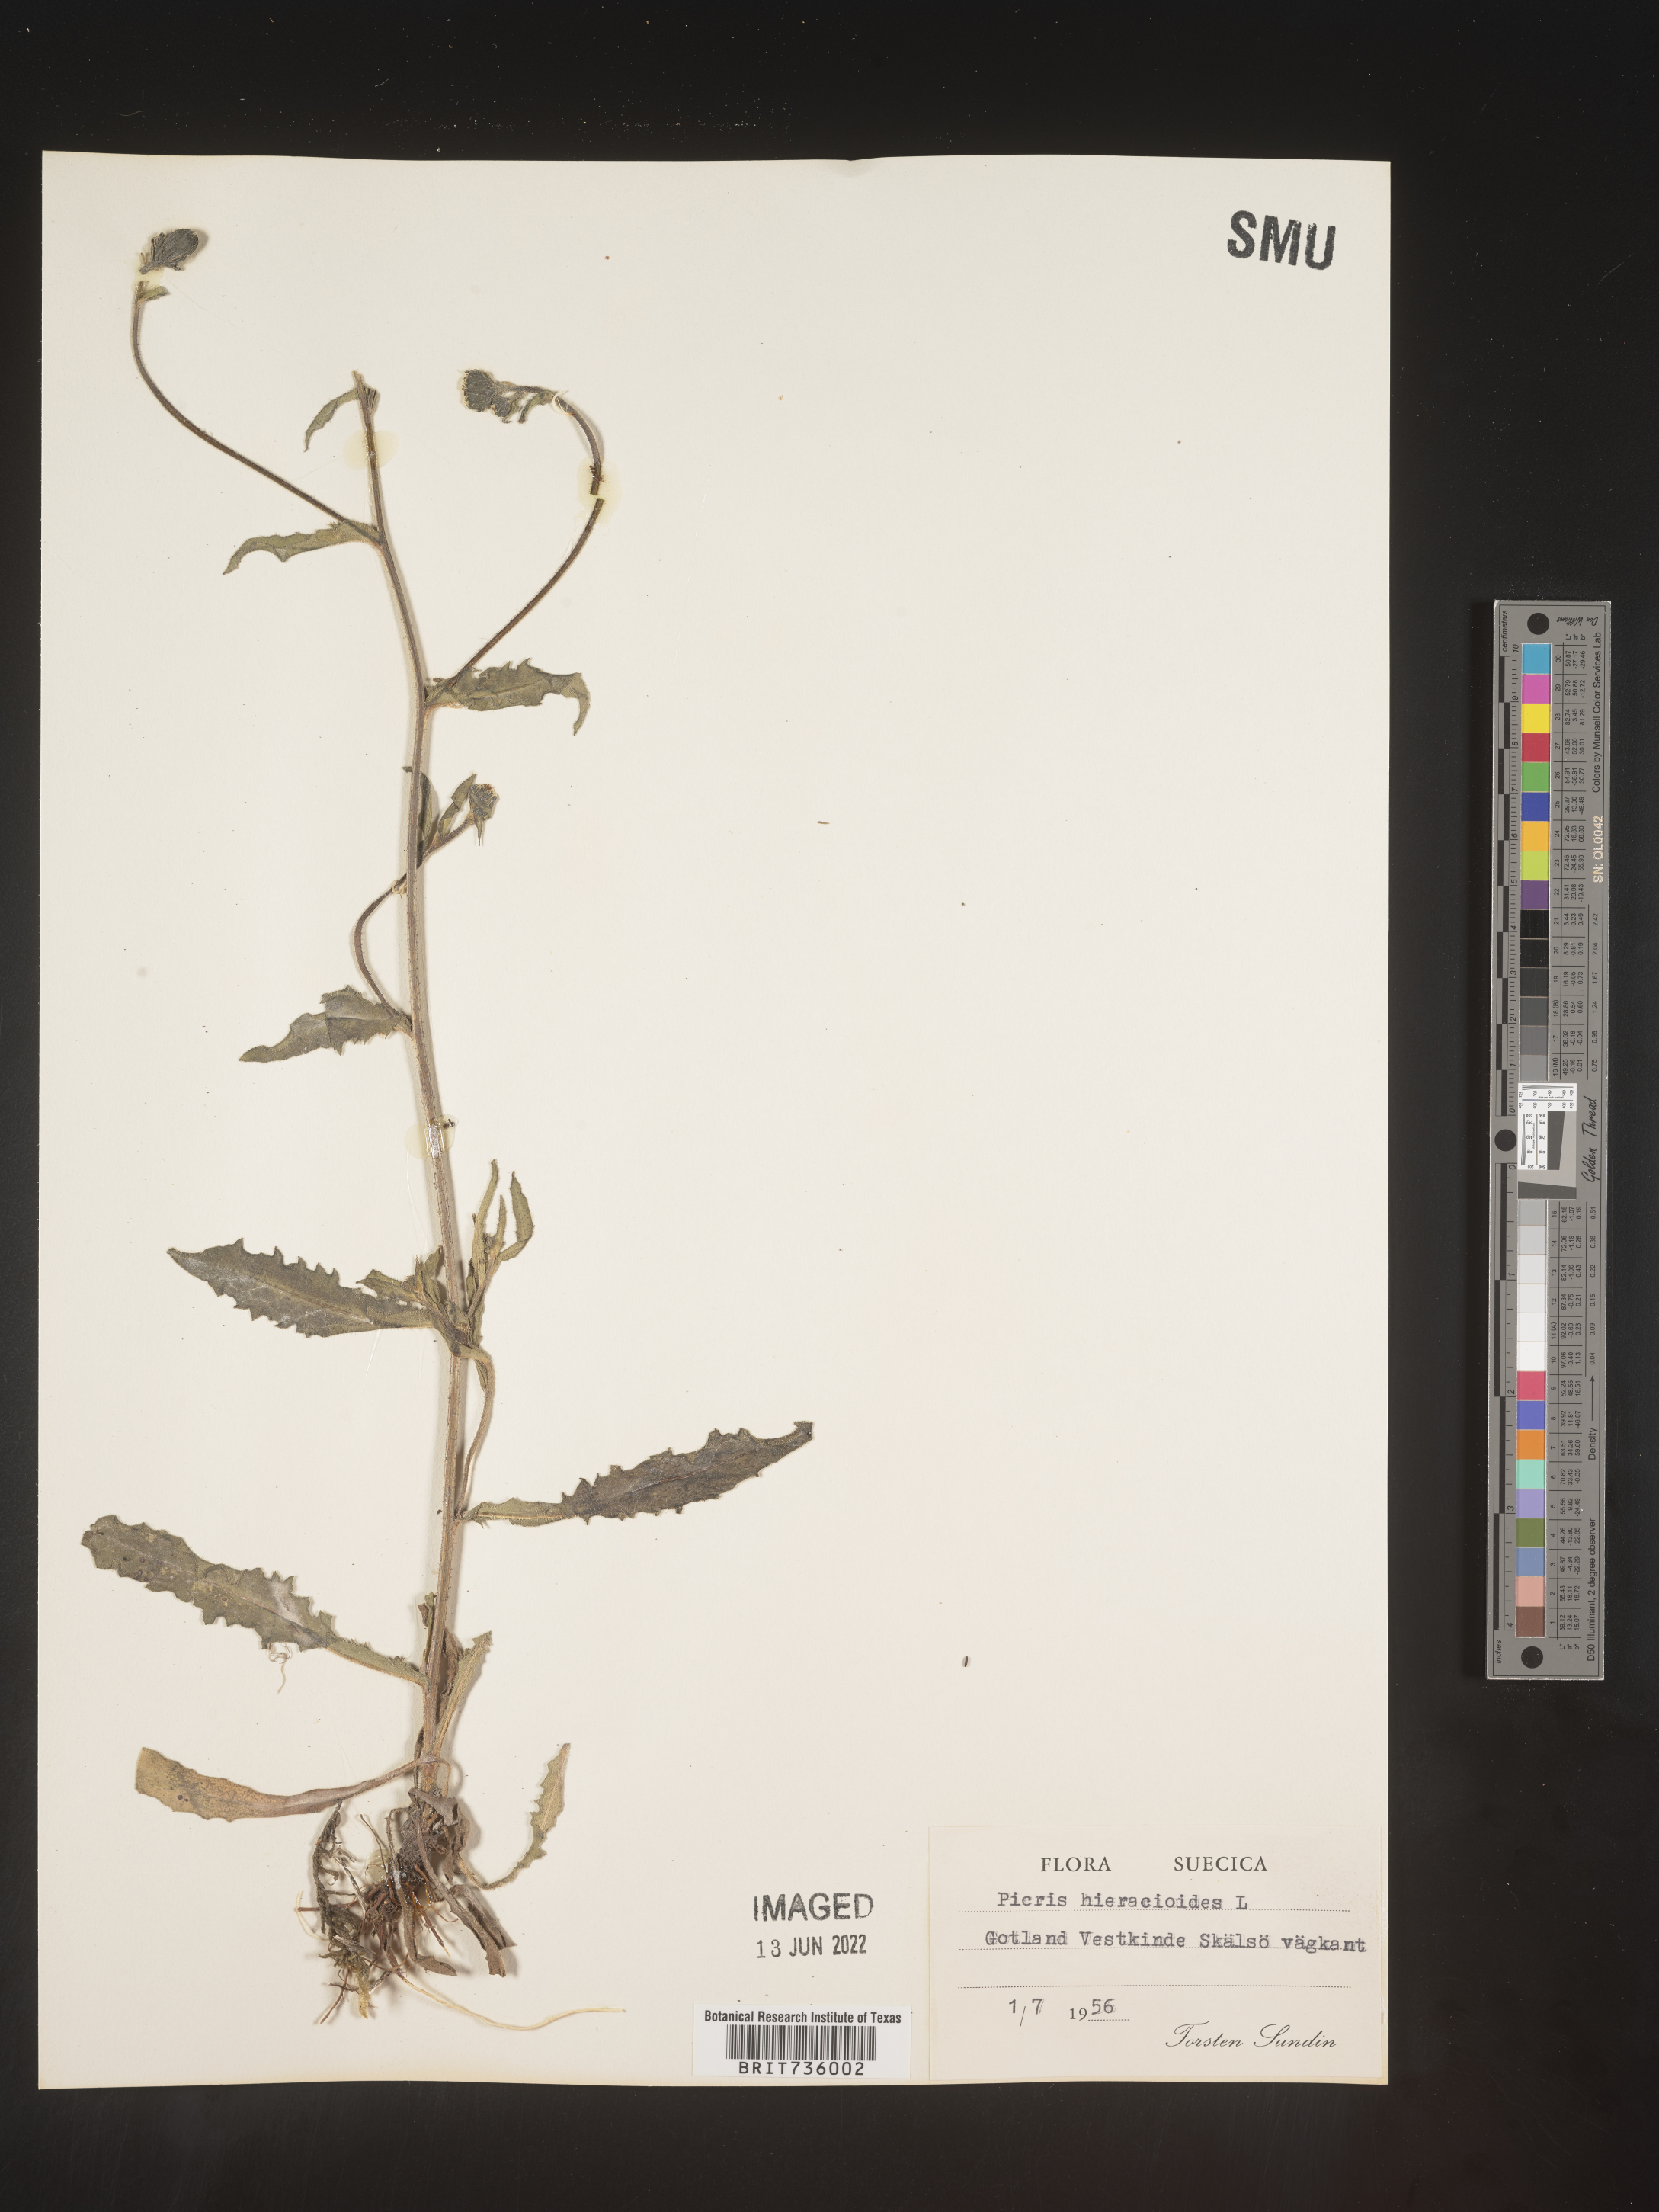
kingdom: Plantae
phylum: Tracheophyta
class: Magnoliopsida
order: Asterales
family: Asteraceae
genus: Picris
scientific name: Picris
